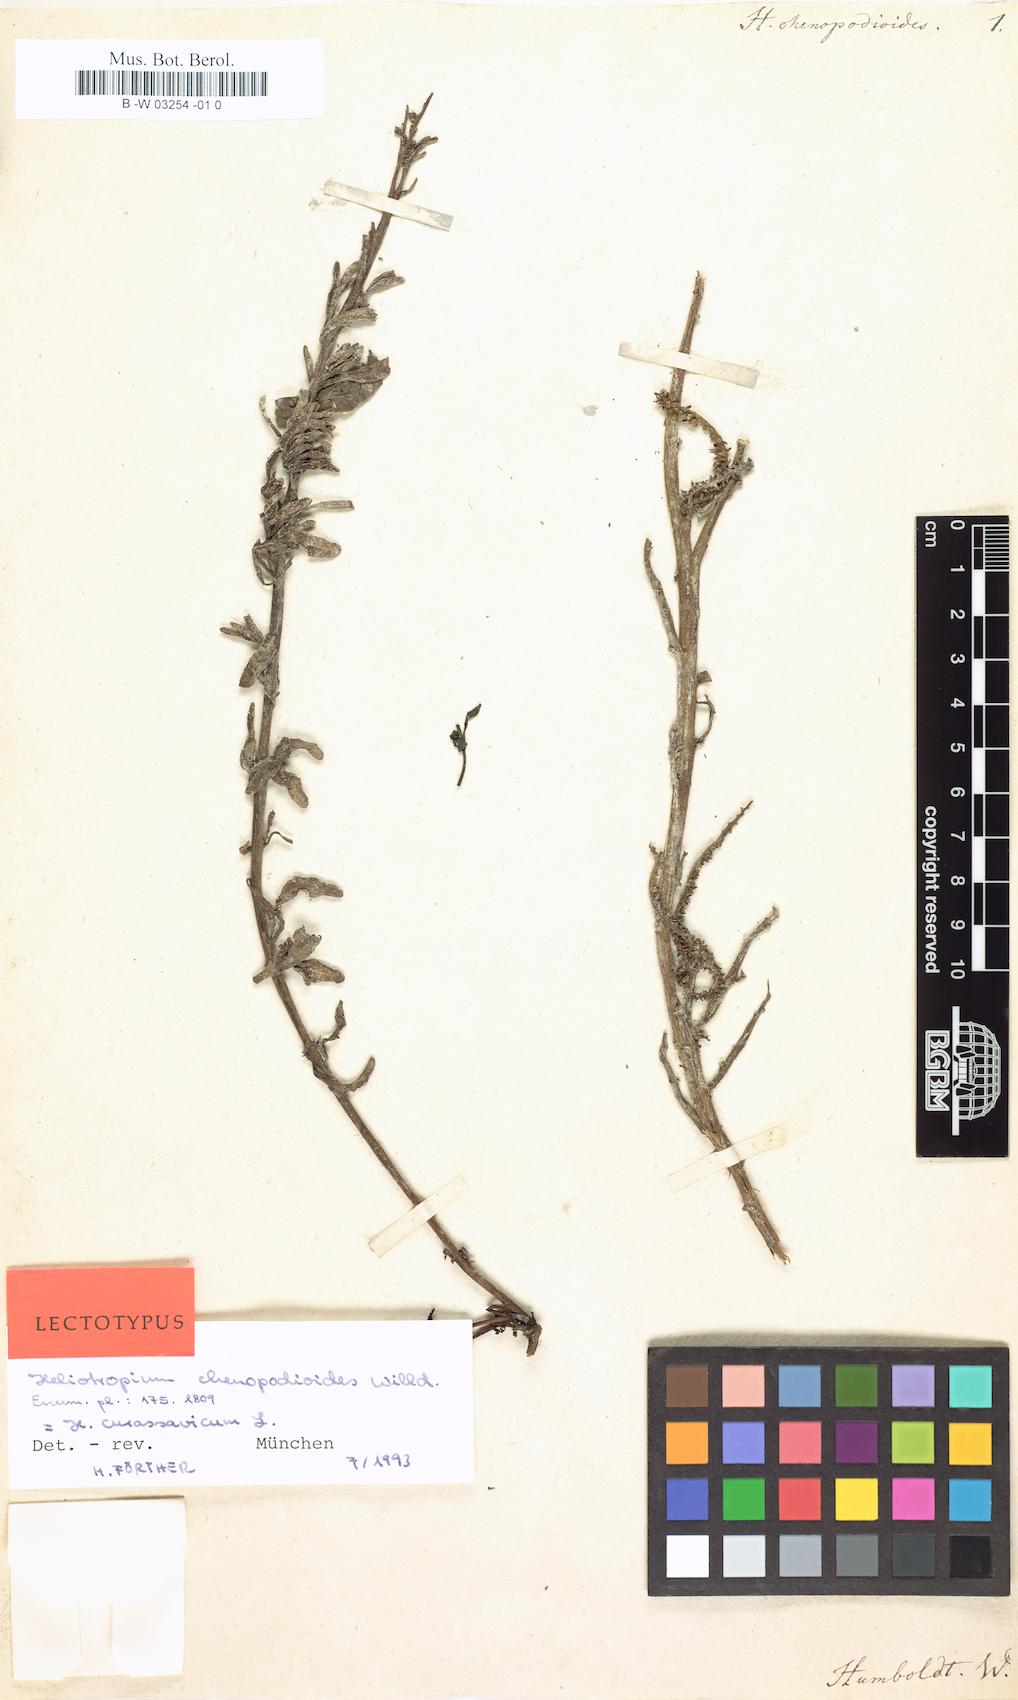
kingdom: Plantae
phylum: Tracheophyta
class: Magnoliopsida
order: Boraginales
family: Heliotropiaceae
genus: Heliotropium
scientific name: Heliotropium curassavicum
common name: Seaside heliotrope
